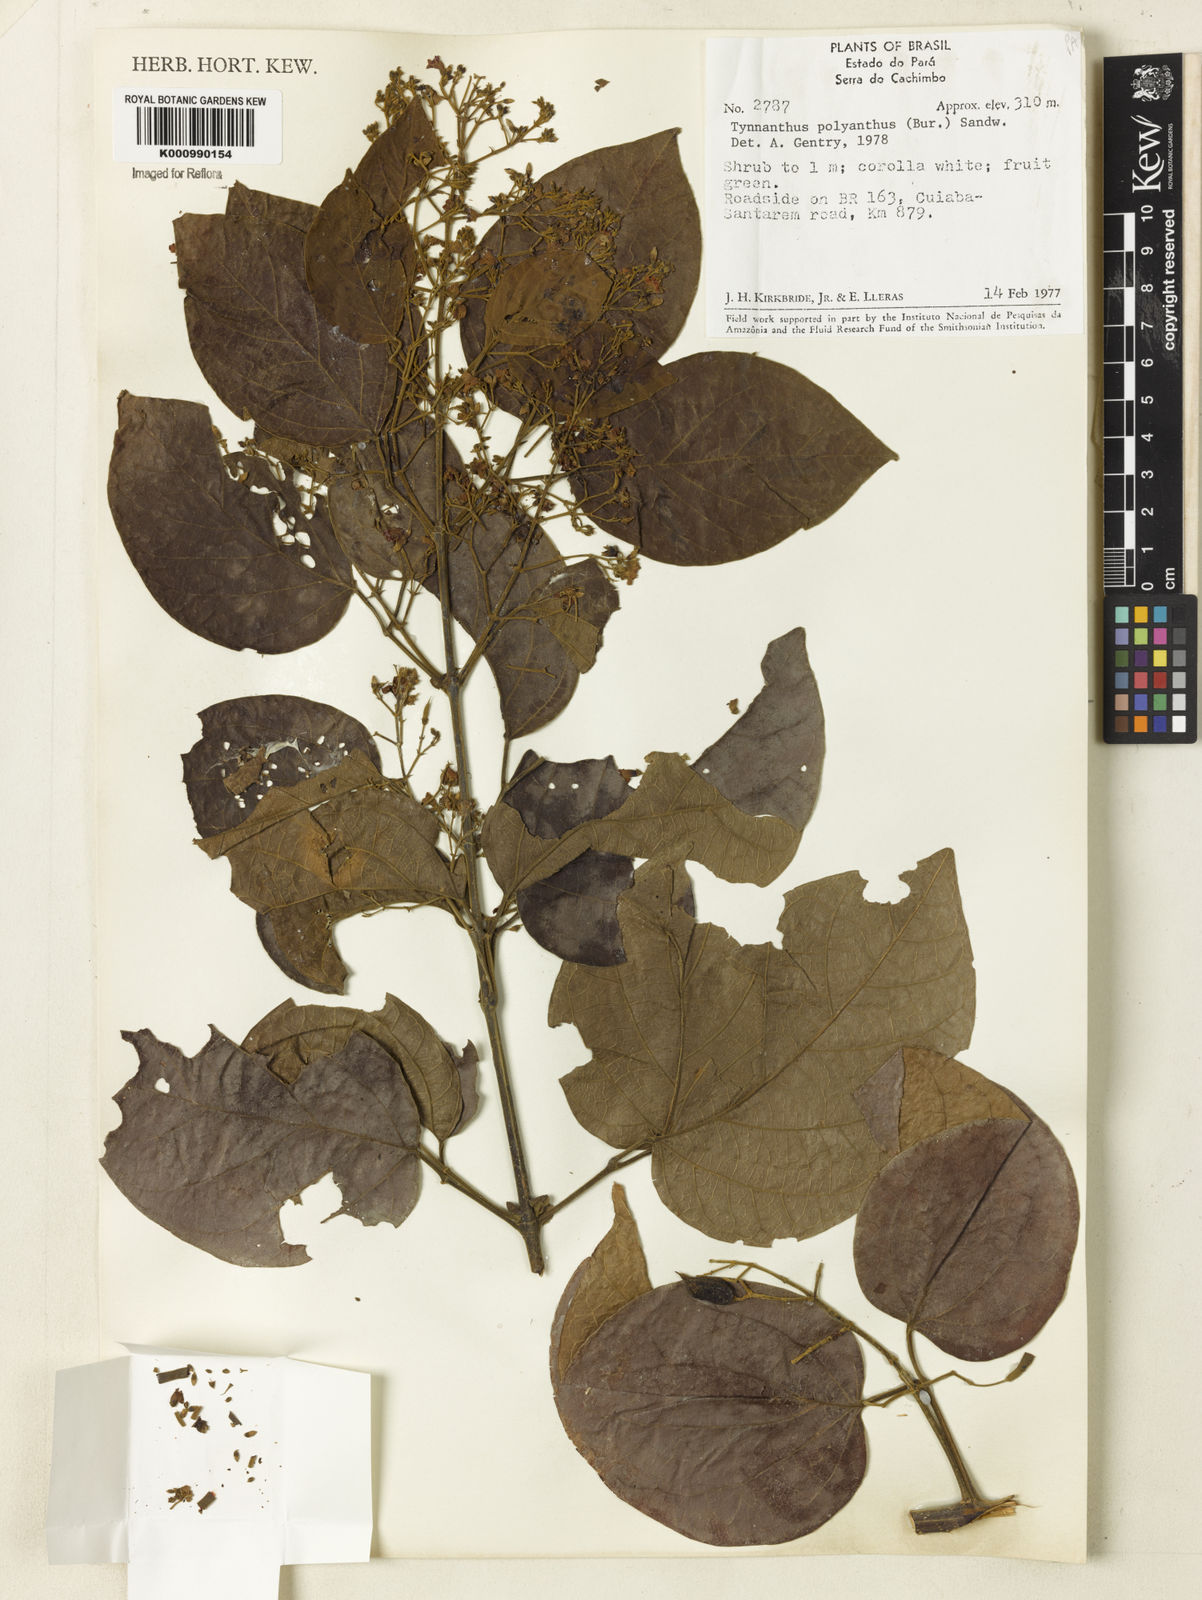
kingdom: Plantae
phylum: Tracheophyta
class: Magnoliopsida
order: Lamiales
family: Bignoniaceae
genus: Tynanthus
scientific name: Tynanthus polyanthus
